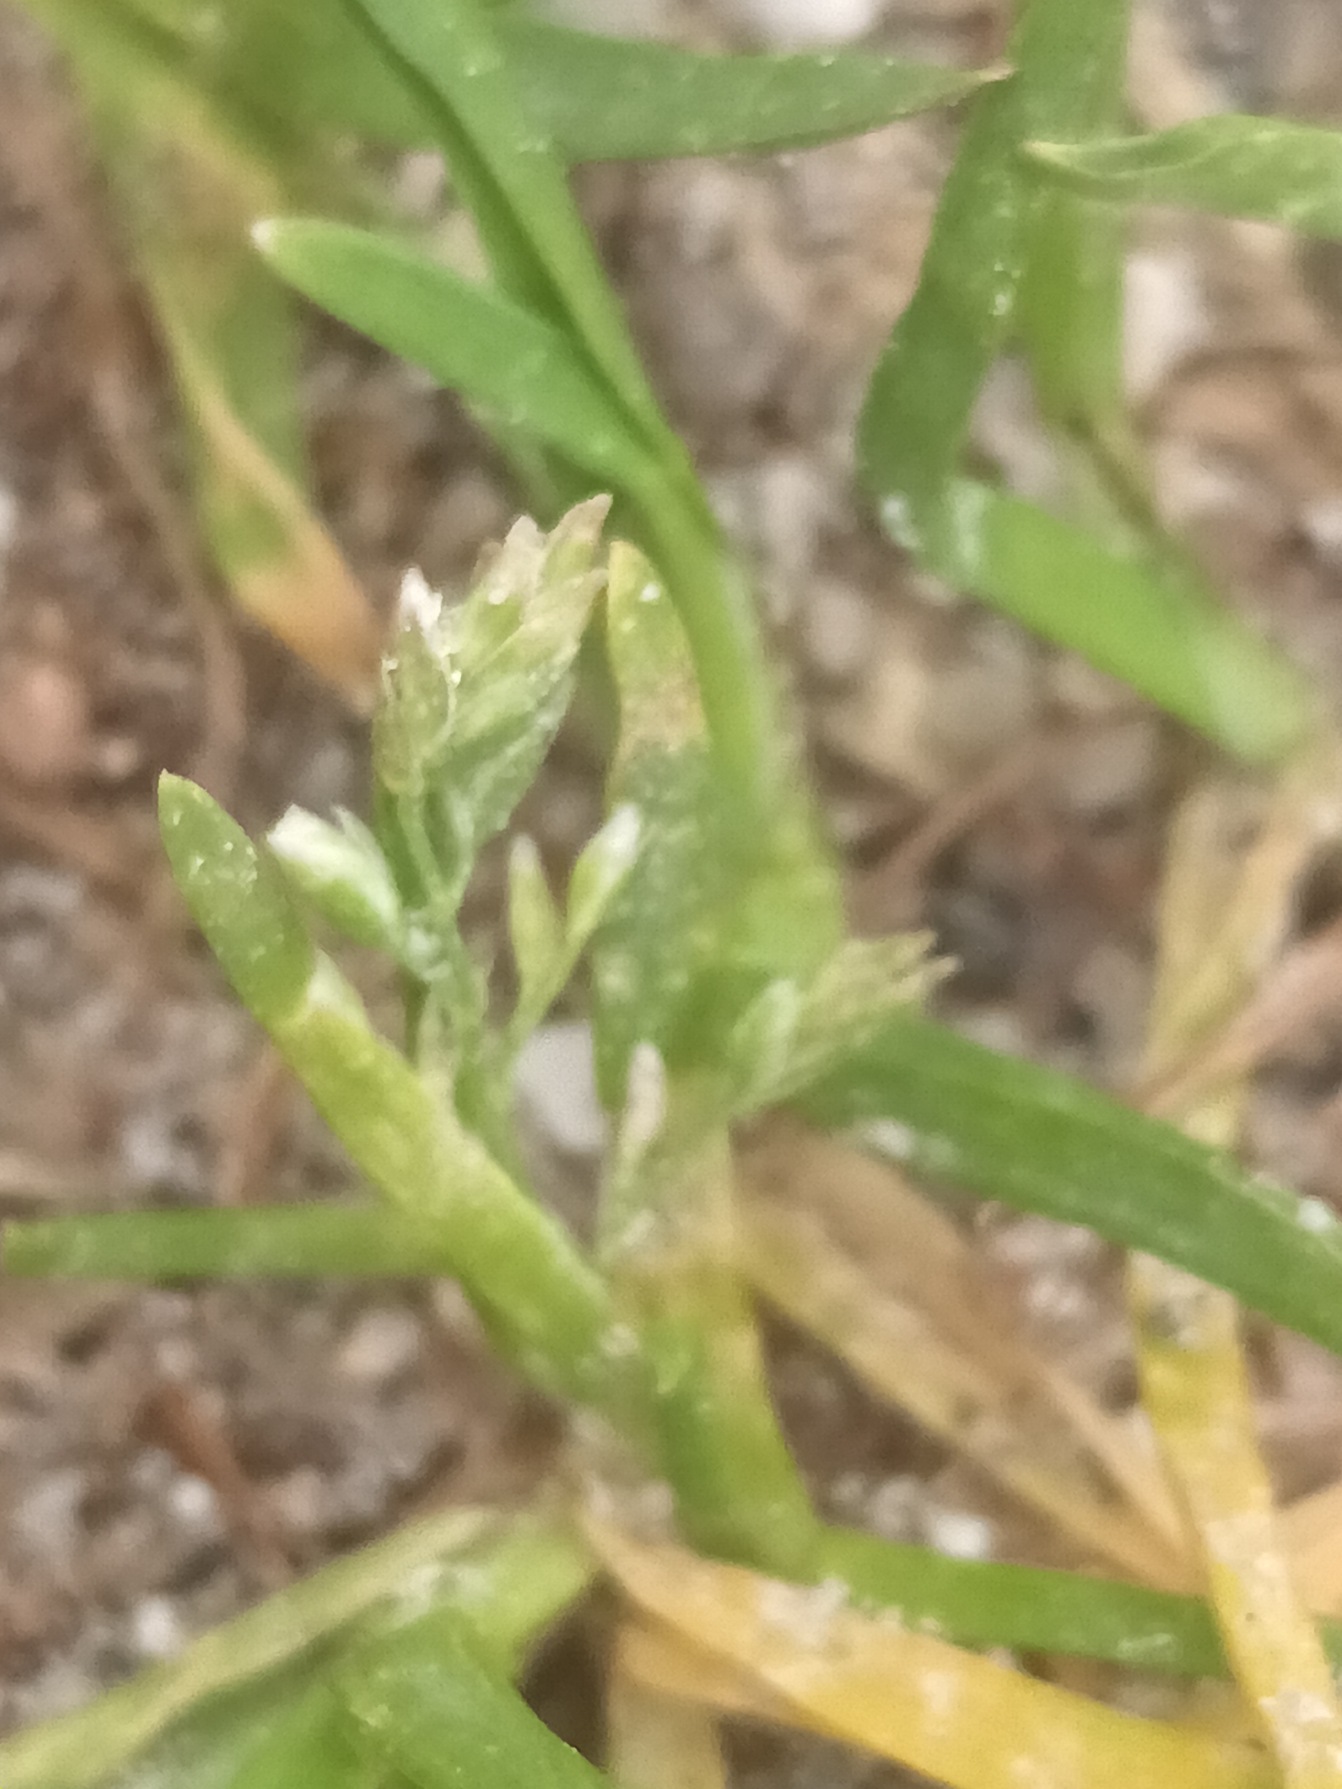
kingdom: Plantae
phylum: Tracheophyta
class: Liliopsida
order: Poales
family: Poaceae
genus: Poa
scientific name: Poa annua
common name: Enårig rapgræs
